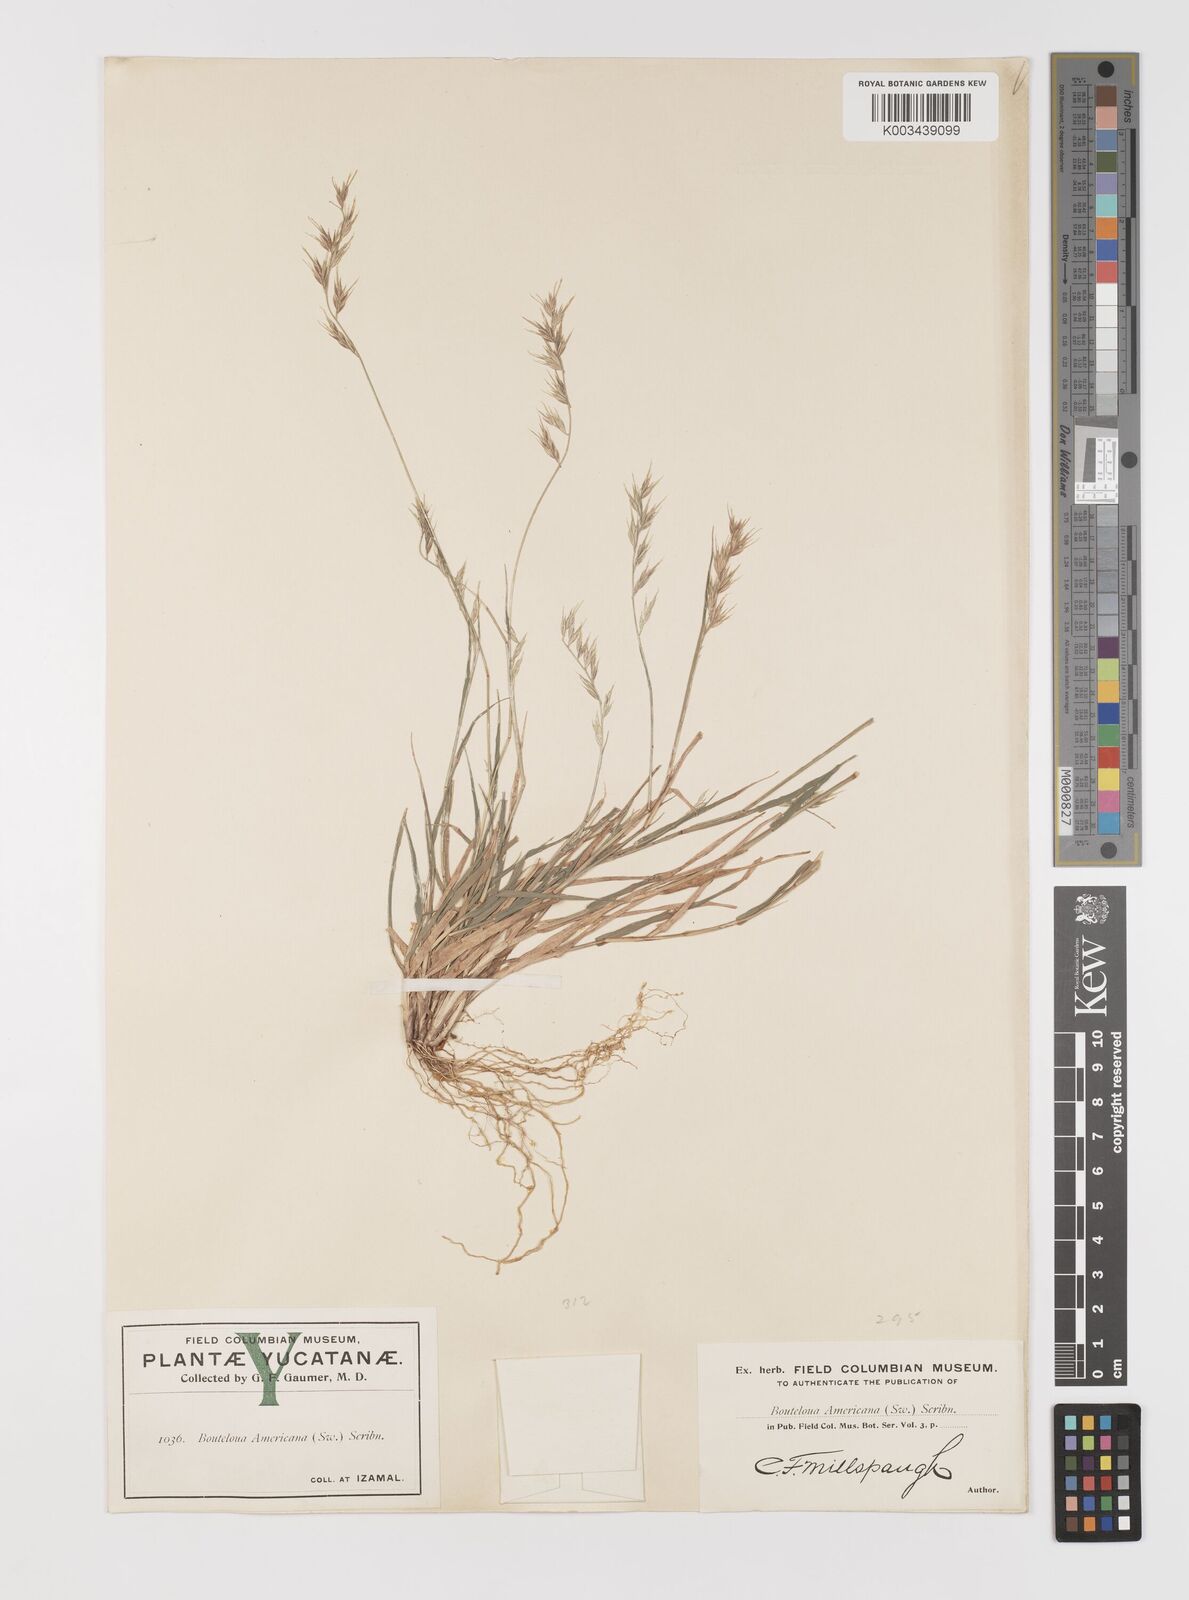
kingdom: Plantae
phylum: Tracheophyta
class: Liliopsida
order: Poales
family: Poaceae
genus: Bouteloua
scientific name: Bouteloua americana
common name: Mule grass
